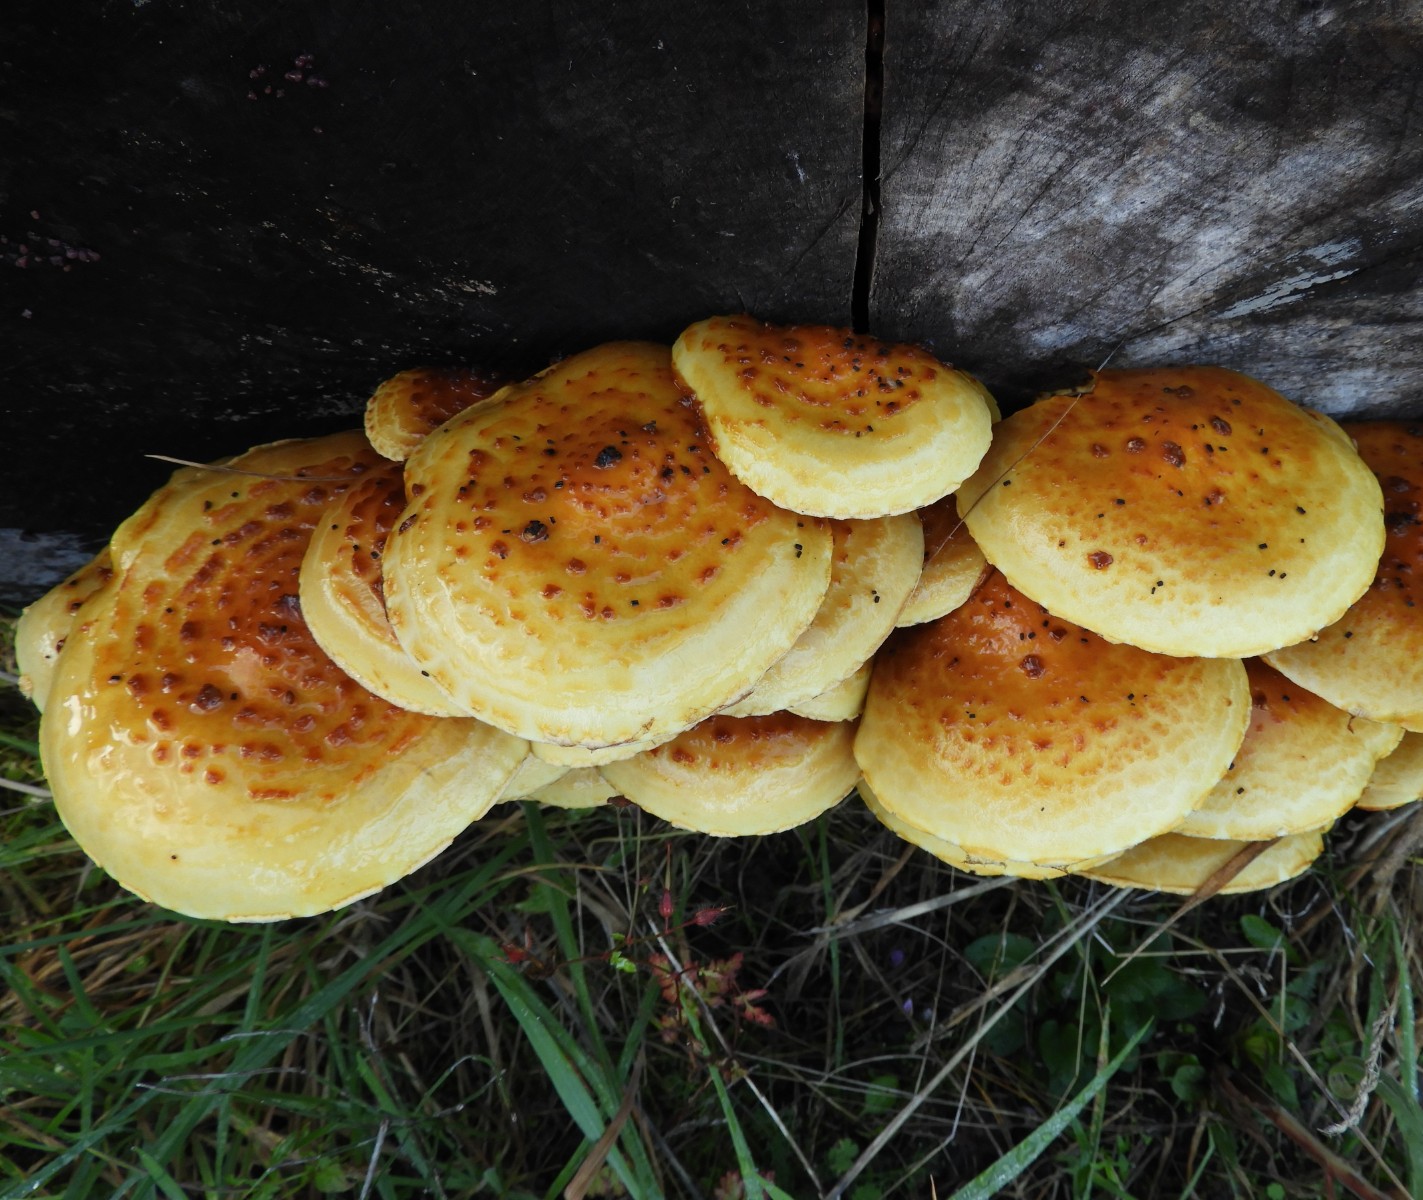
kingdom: Fungi
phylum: Basidiomycota
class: Agaricomycetes
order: Agaricales
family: Strophariaceae
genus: Pholiota
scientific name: Pholiota adiposa
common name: højtsiddende skælhat
